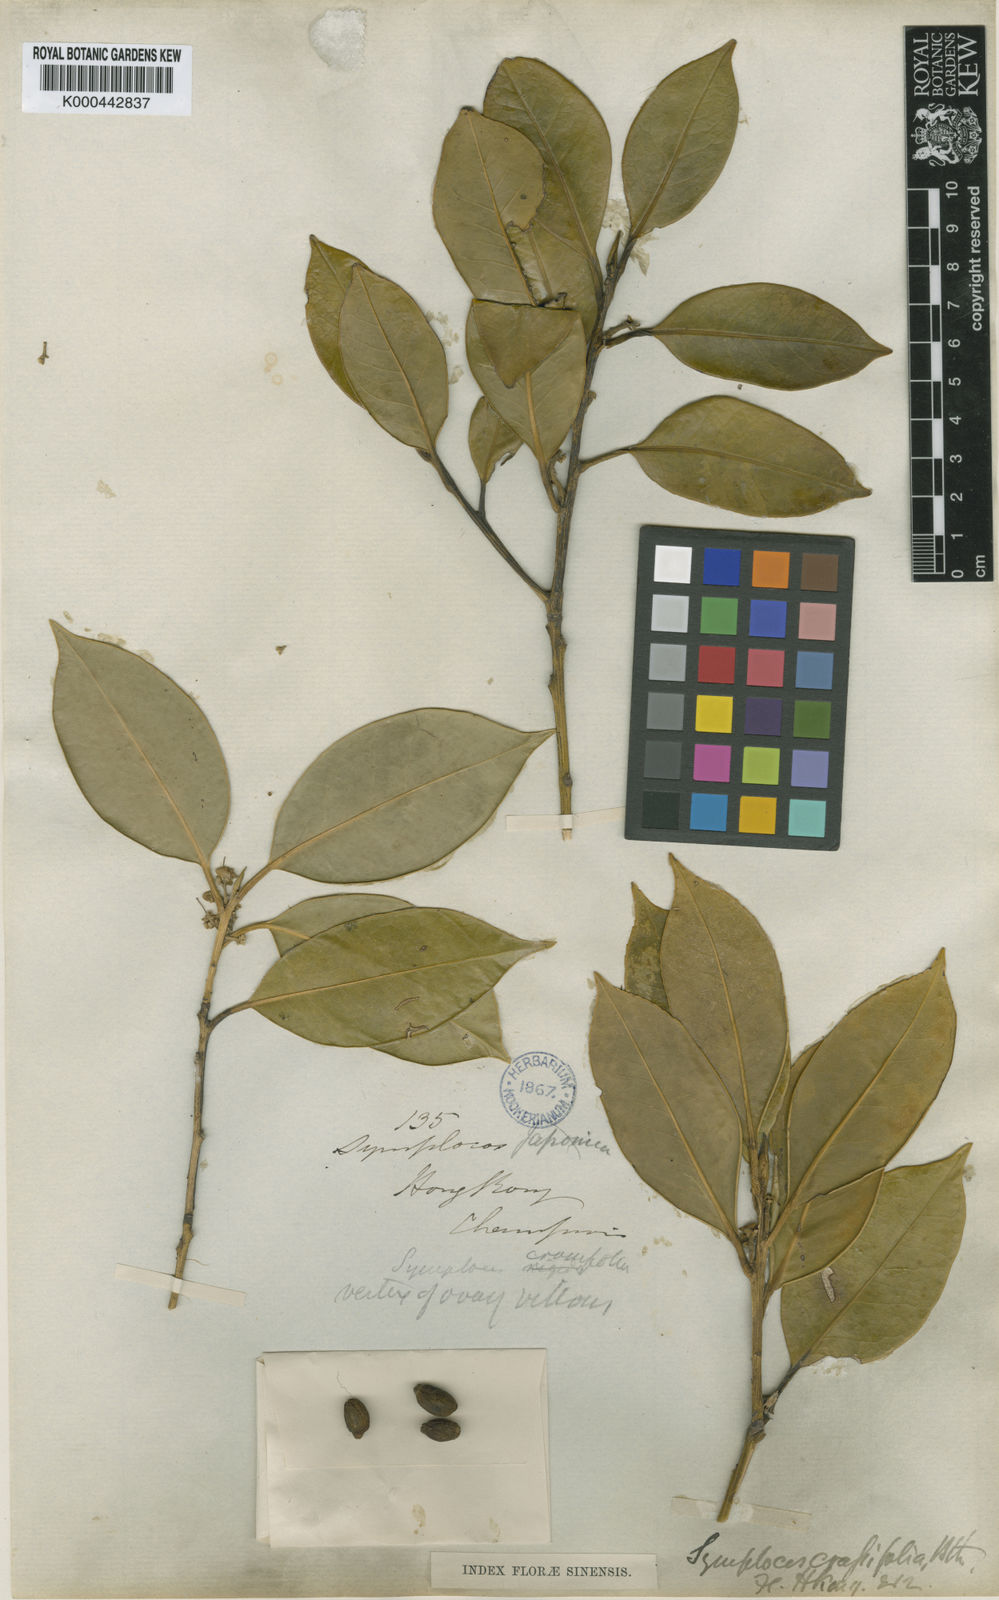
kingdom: Plantae
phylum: Tracheophyta
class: Magnoliopsida
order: Ericales
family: Symplocaceae
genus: Symplocos
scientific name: Symplocos
